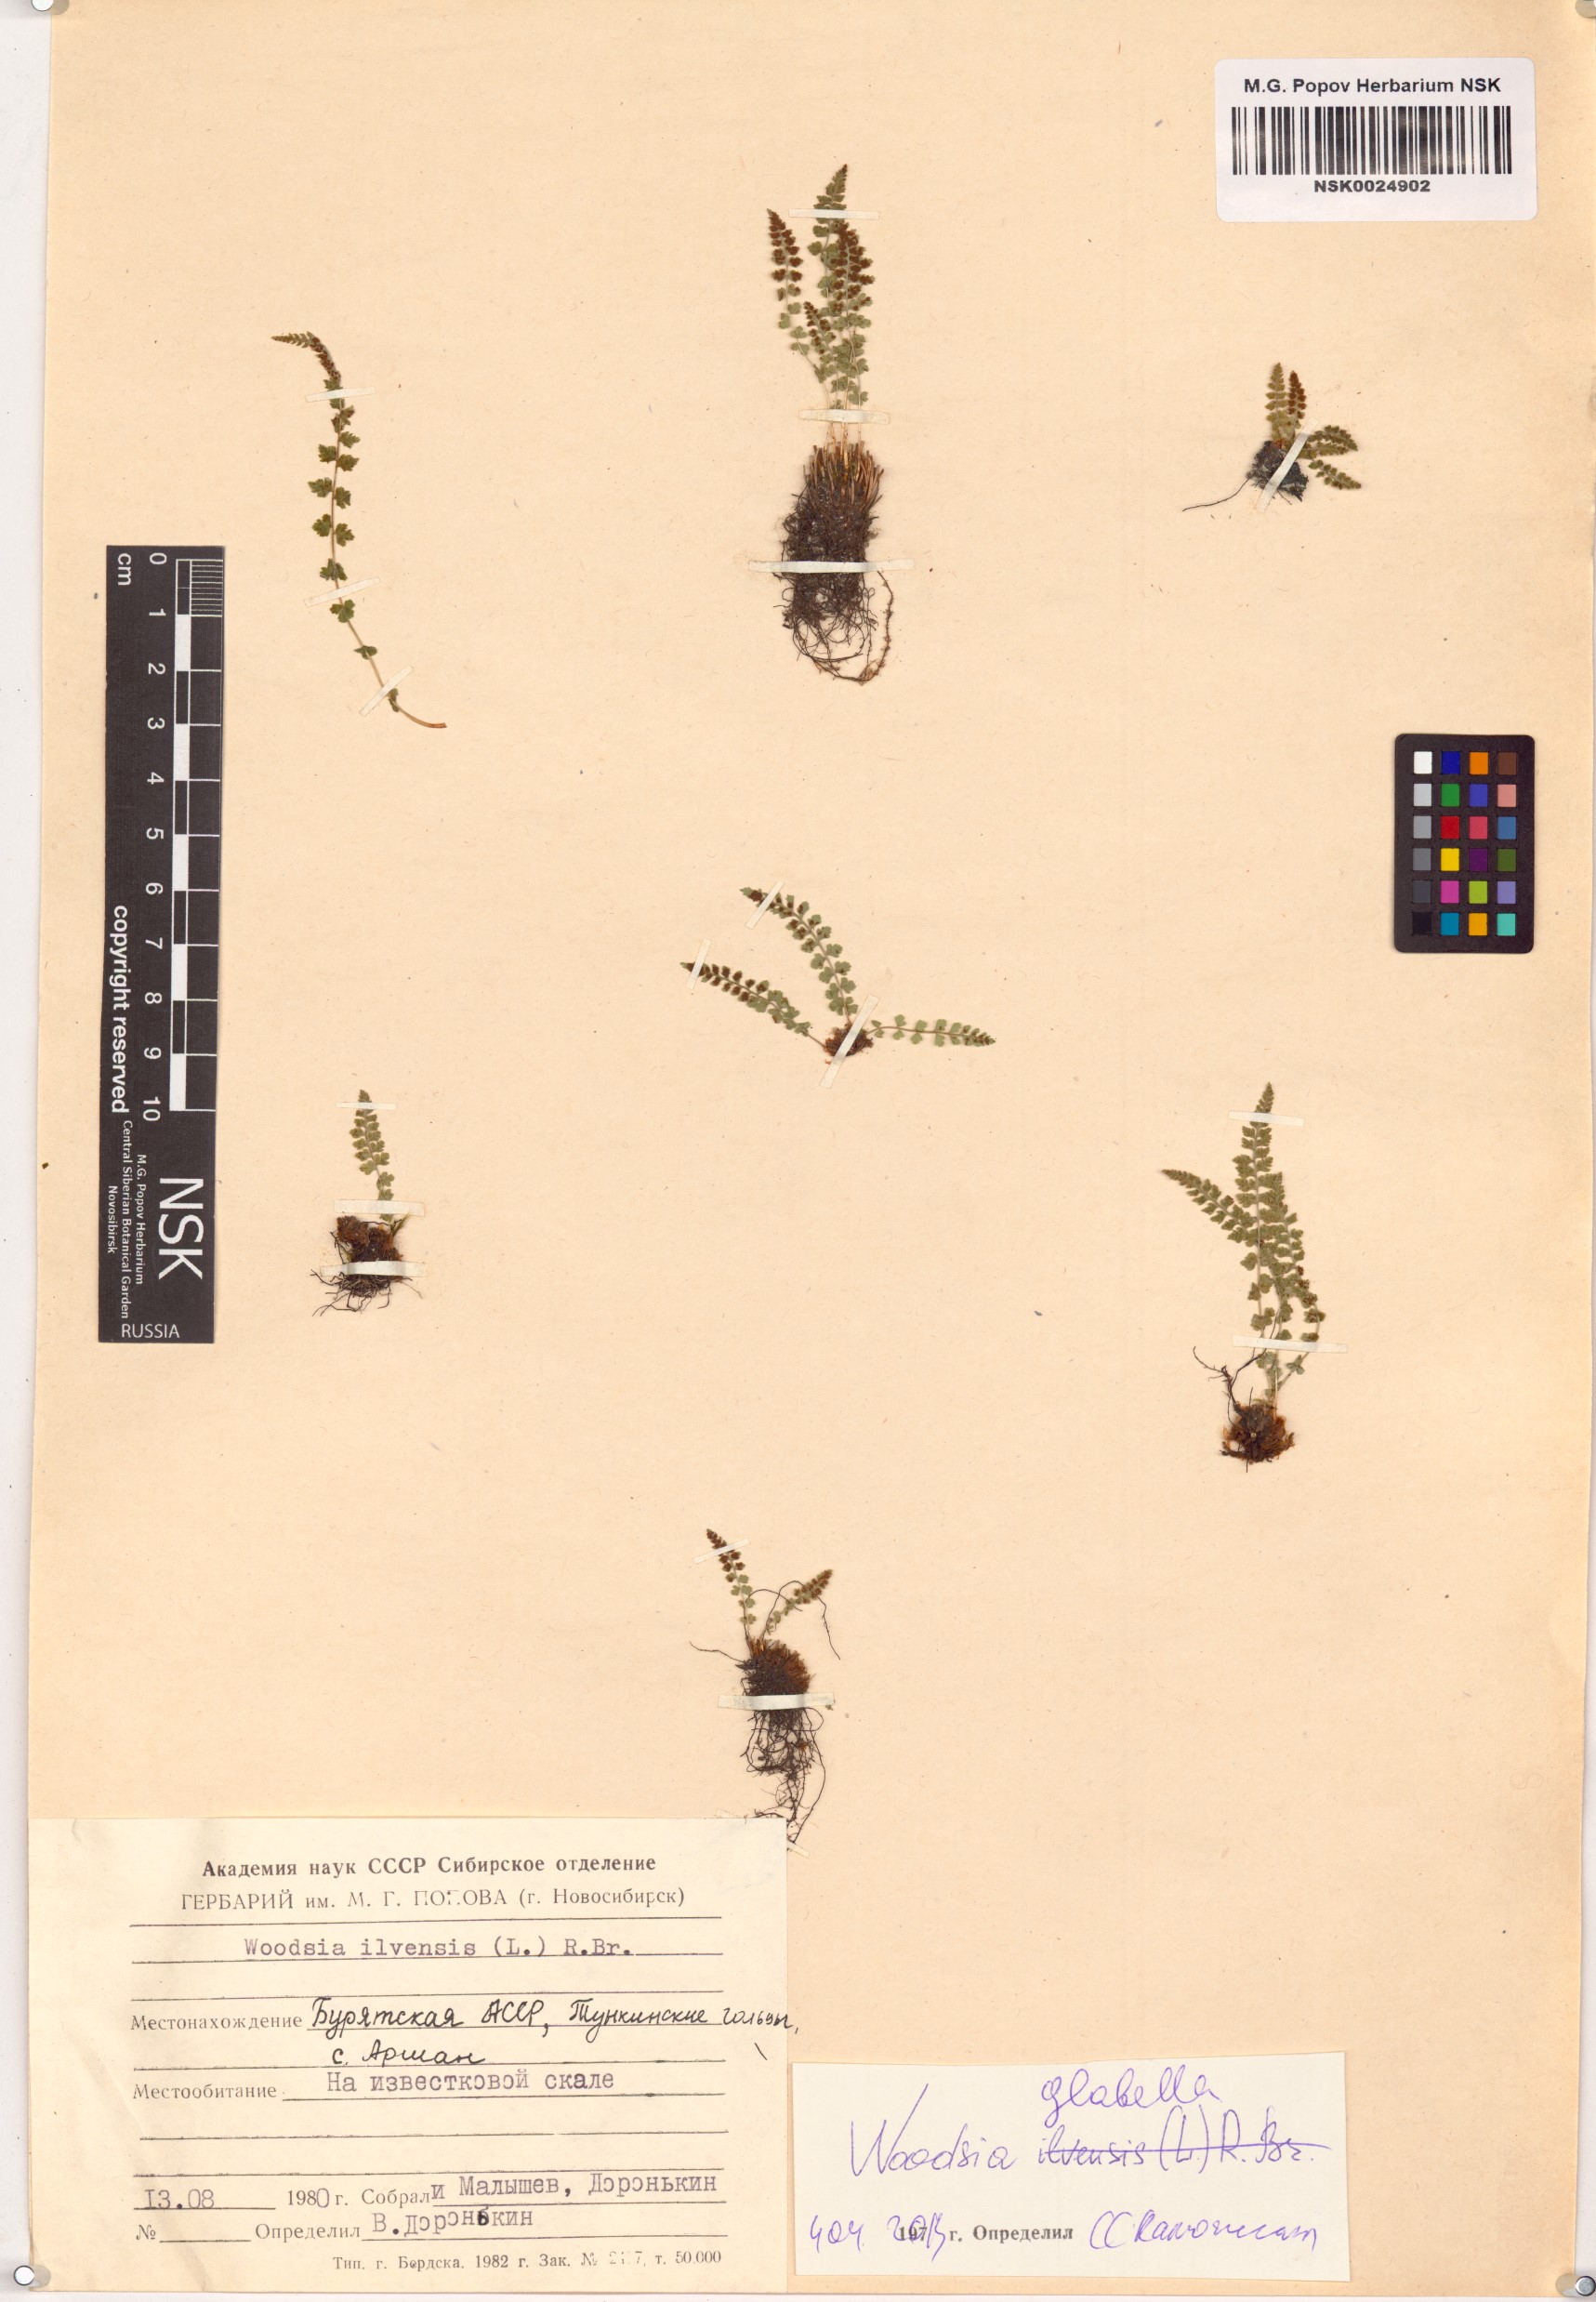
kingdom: Plantae
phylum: Tracheophyta
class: Polypodiopsida
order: Polypodiales
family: Woodsiaceae
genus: Woodsia
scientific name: Woodsia glabella
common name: Smooth woodsia
